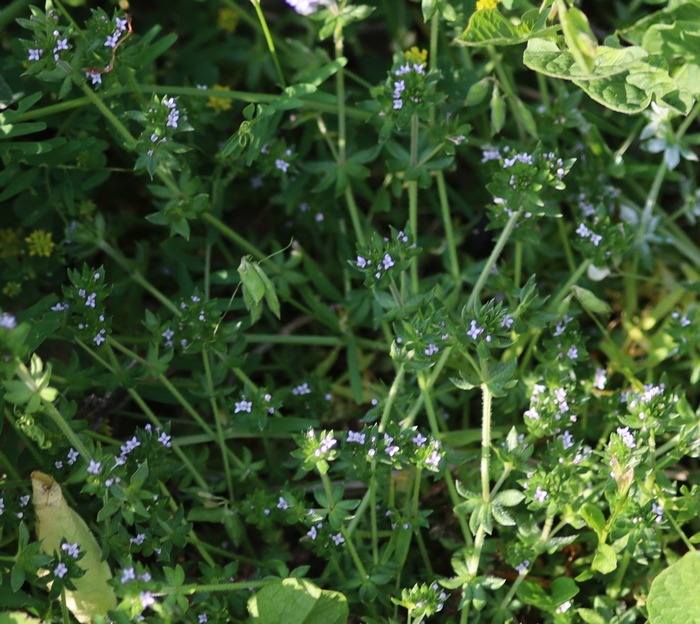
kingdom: Plantae
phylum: Tracheophyta
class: Magnoliopsida
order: Gentianales
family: Rubiaceae
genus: Sherardia
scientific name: Sherardia arvensis
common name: Blåstjerne
